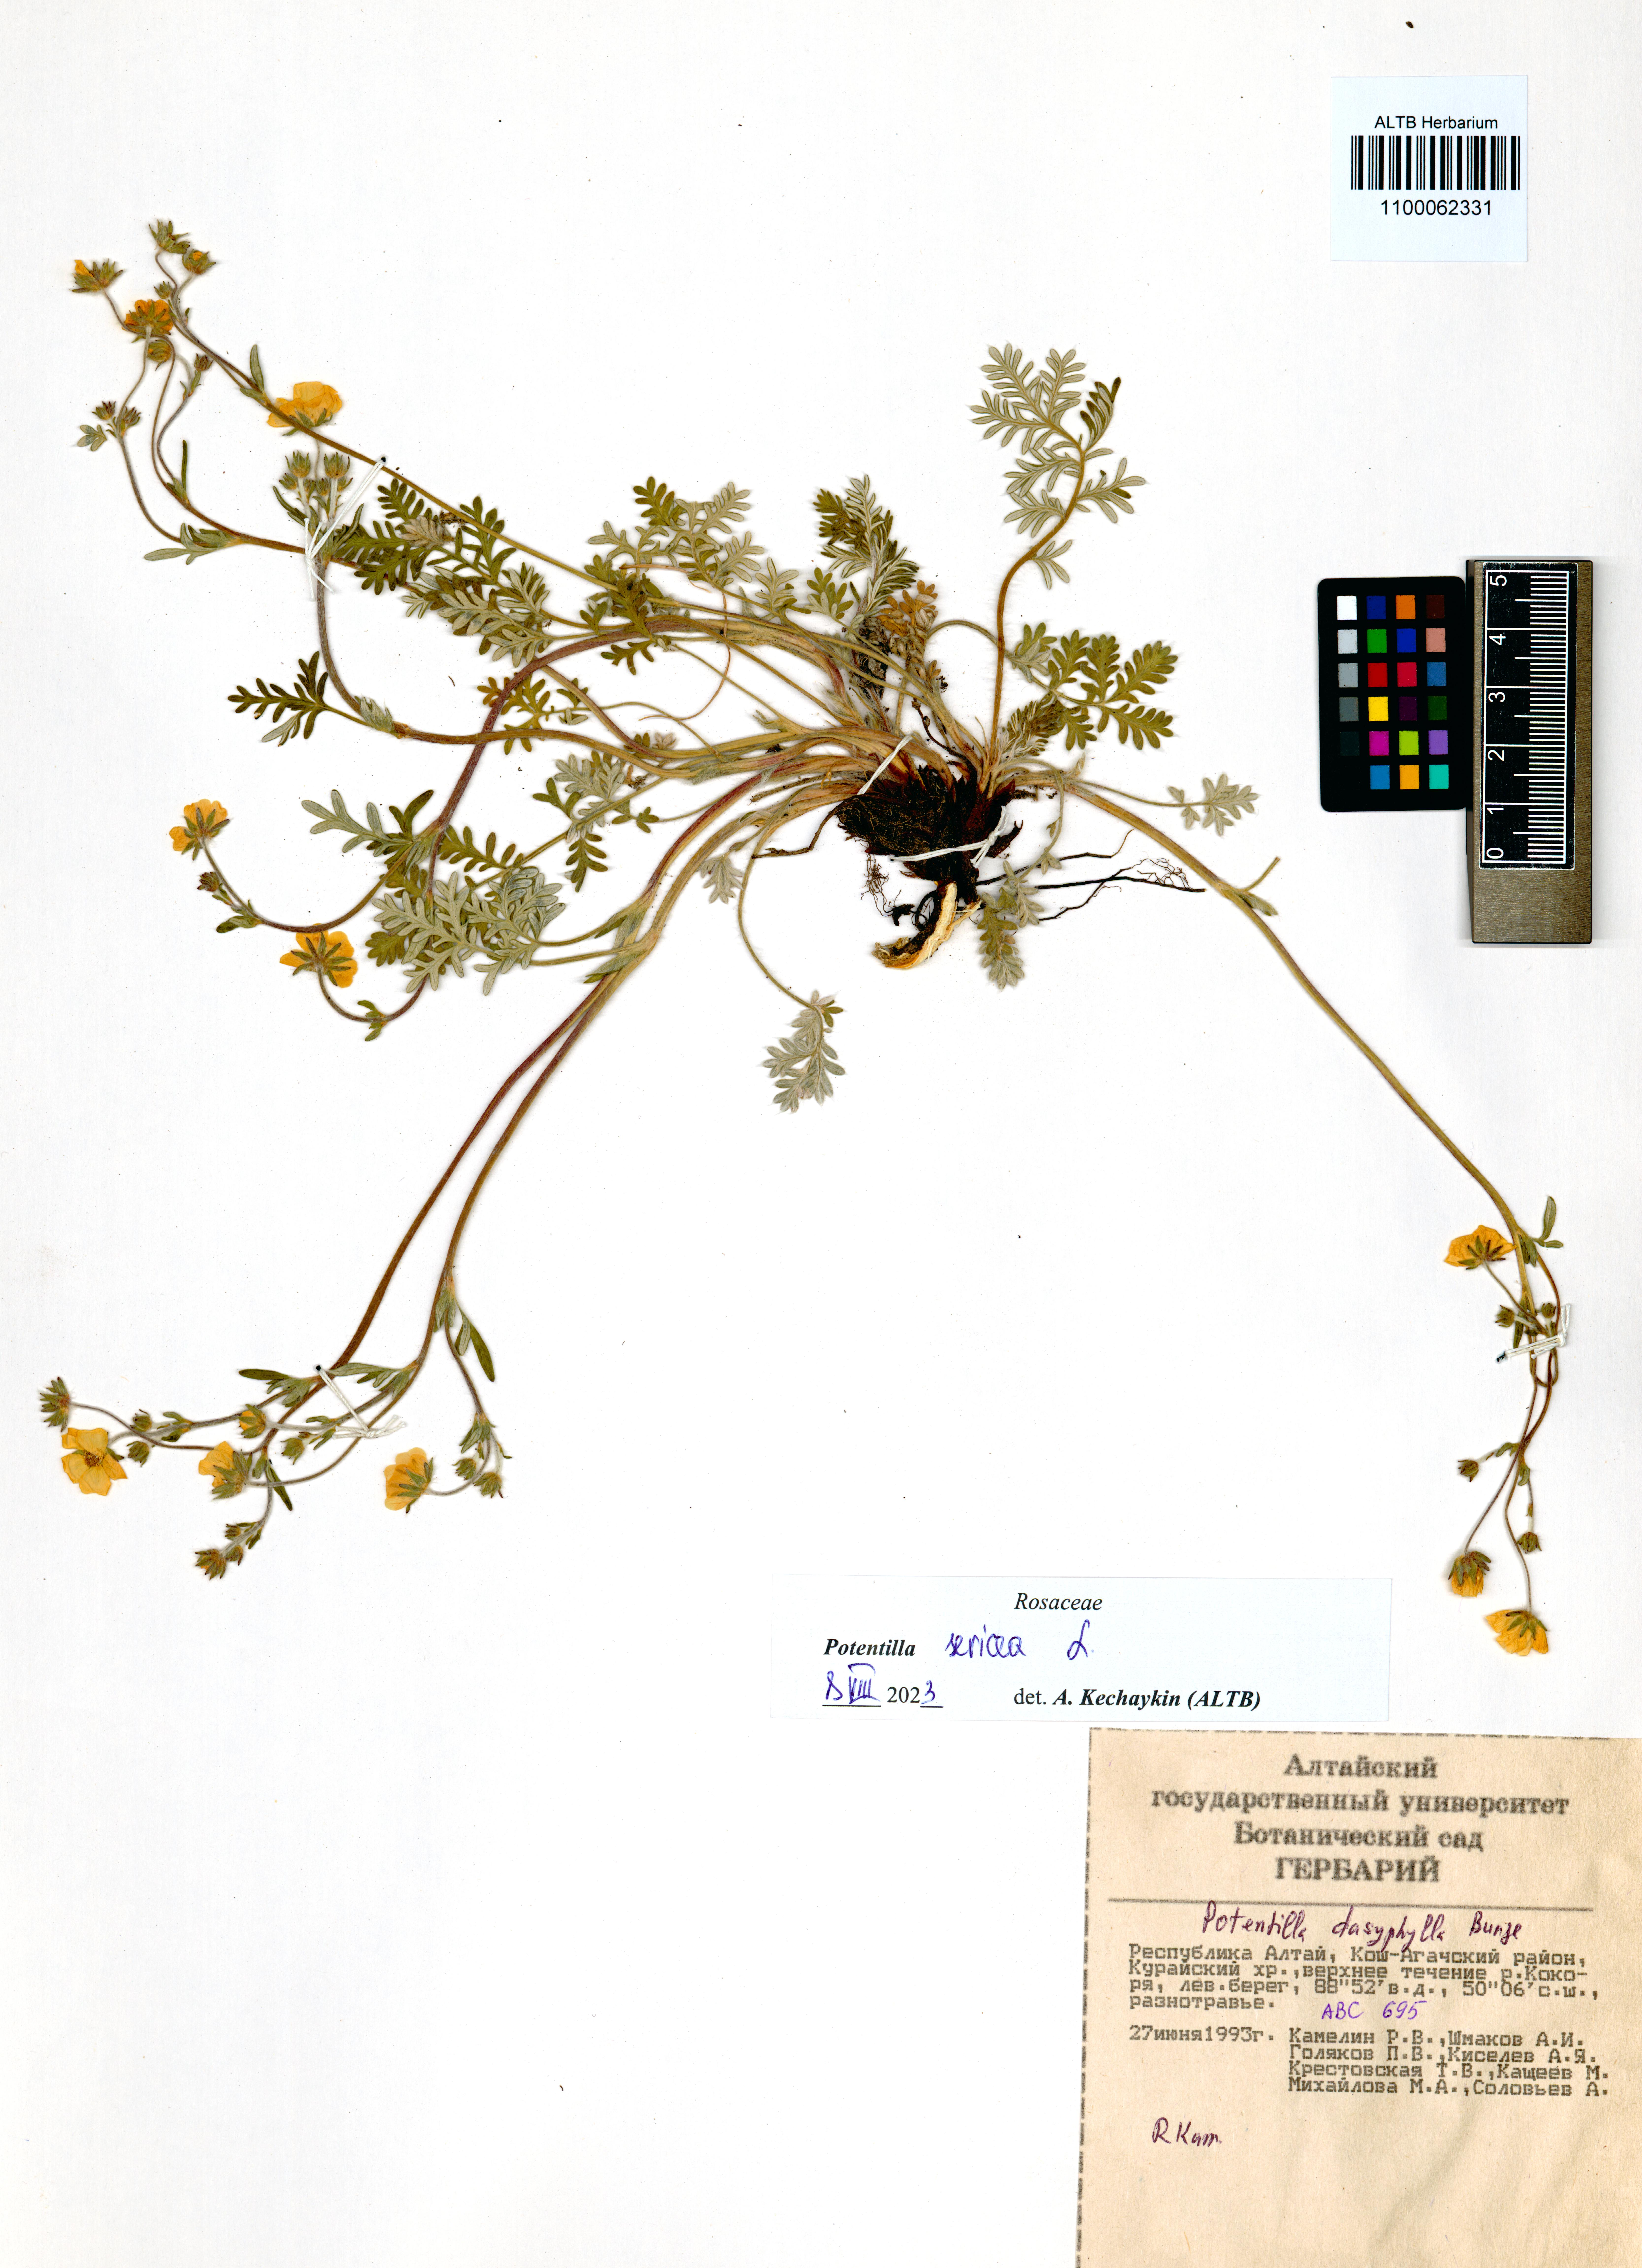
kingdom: Plantae
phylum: Tracheophyta
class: Magnoliopsida
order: Rosales
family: Rosaceae
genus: Potentilla
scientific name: Potentilla sericea
